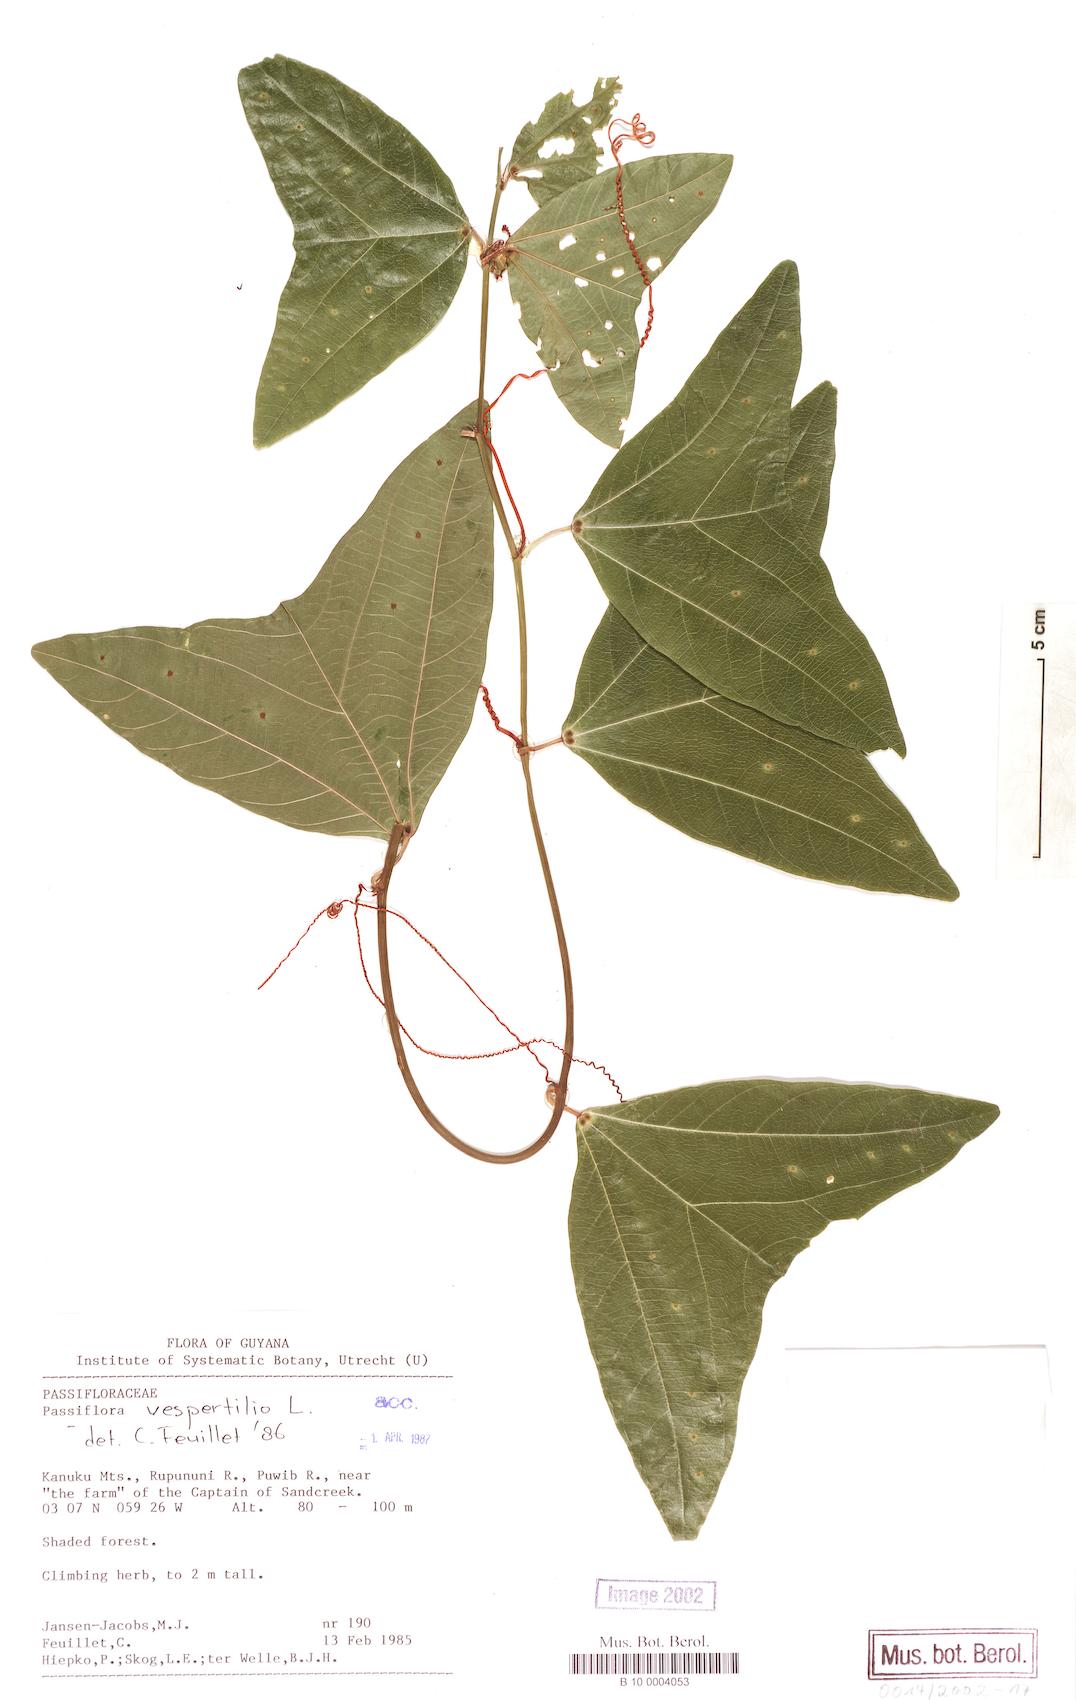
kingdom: Plantae
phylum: Tracheophyta
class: Magnoliopsida
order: Malpighiales
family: Passifloraceae
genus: Passiflora
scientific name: Passiflora vespertilio
